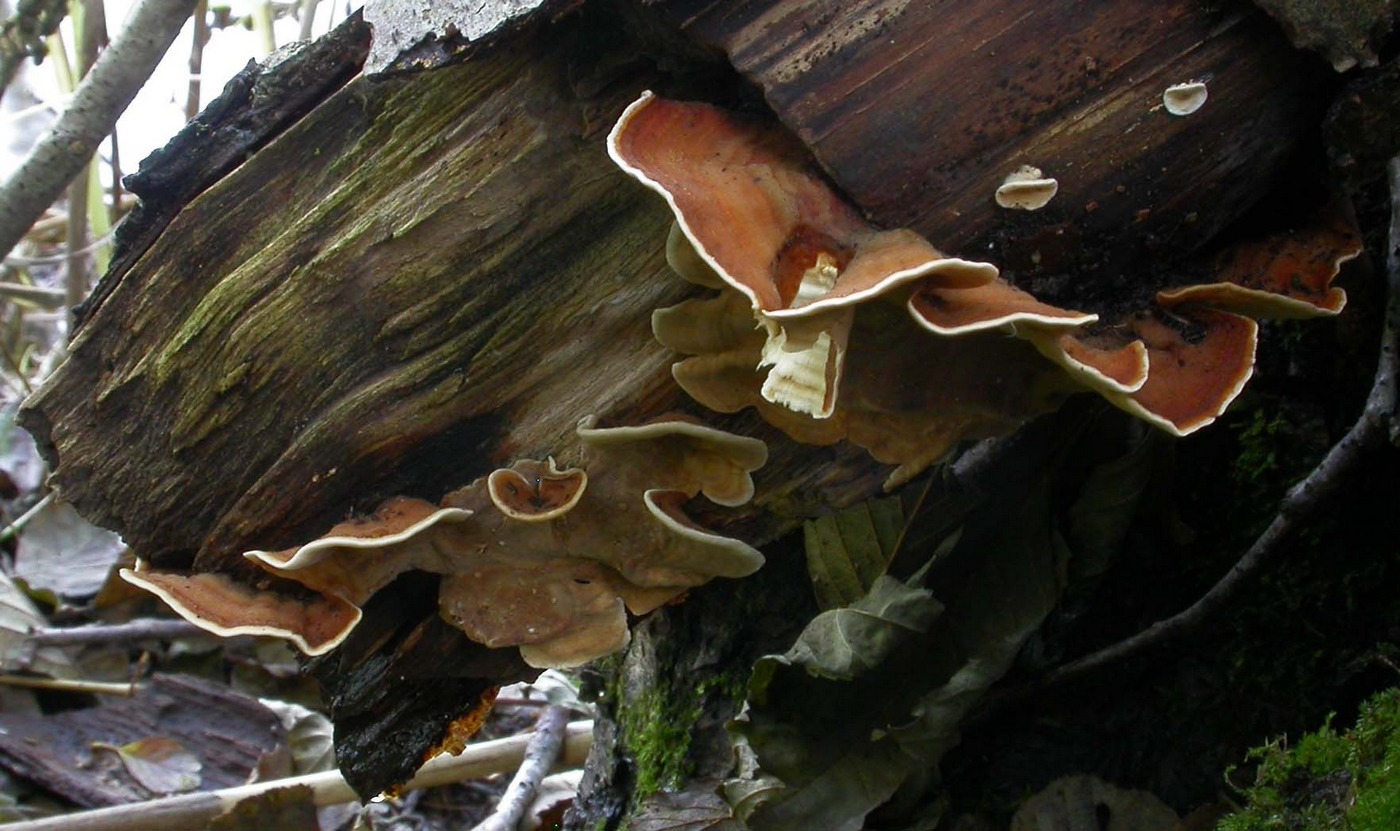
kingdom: Fungi
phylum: Basidiomycota
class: Agaricomycetes
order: Russulales
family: Stereaceae
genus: Stereum
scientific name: Stereum subtomentosum
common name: smuk lædersvamp
